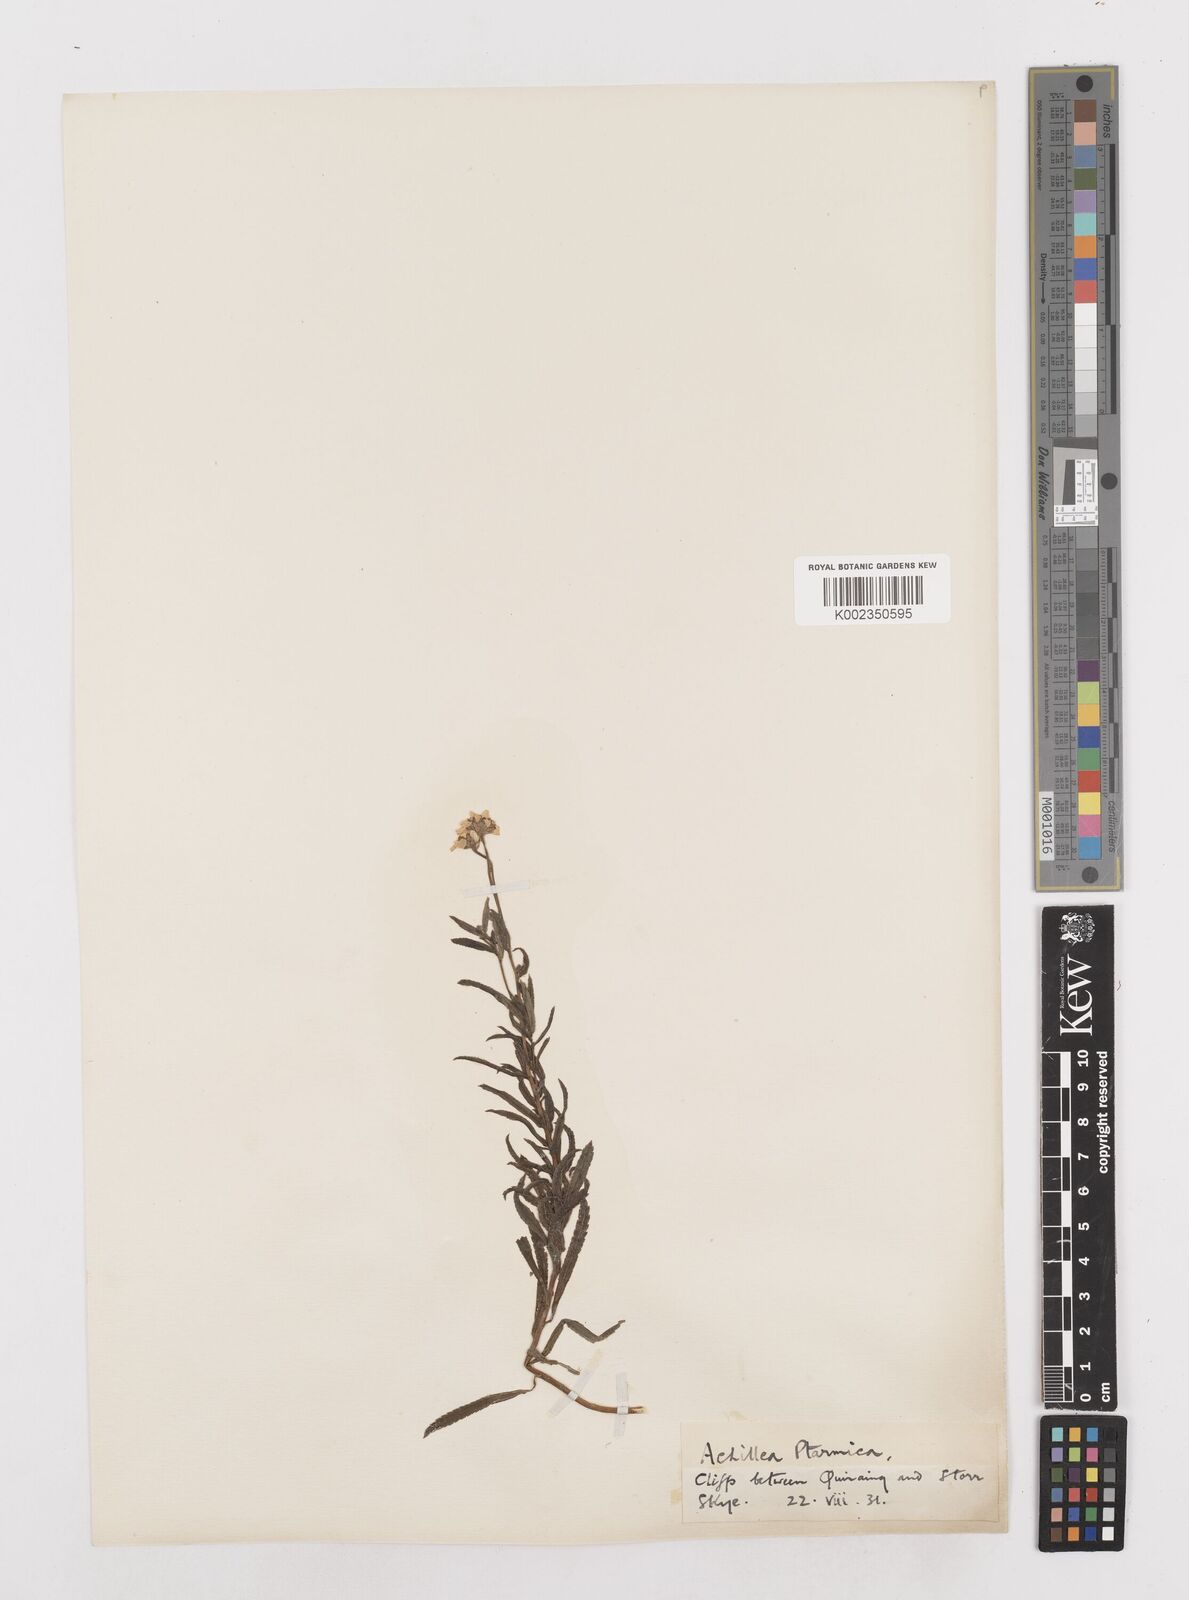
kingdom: Plantae
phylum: Tracheophyta
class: Magnoliopsida
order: Asterales
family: Asteraceae
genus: Achillea
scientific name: Achillea ptarmica
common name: Sneezeweed
